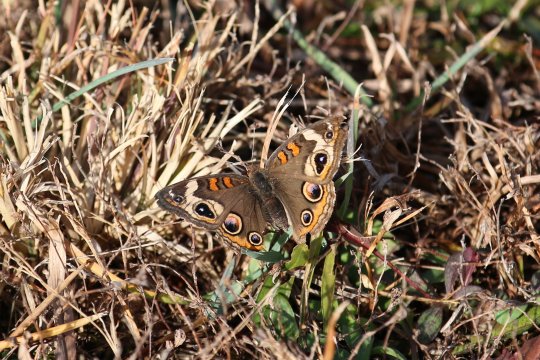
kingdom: Animalia
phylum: Arthropoda
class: Insecta
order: Lepidoptera
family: Nymphalidae
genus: Junonia
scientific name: Junonia coenia
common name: Common Buckeye
